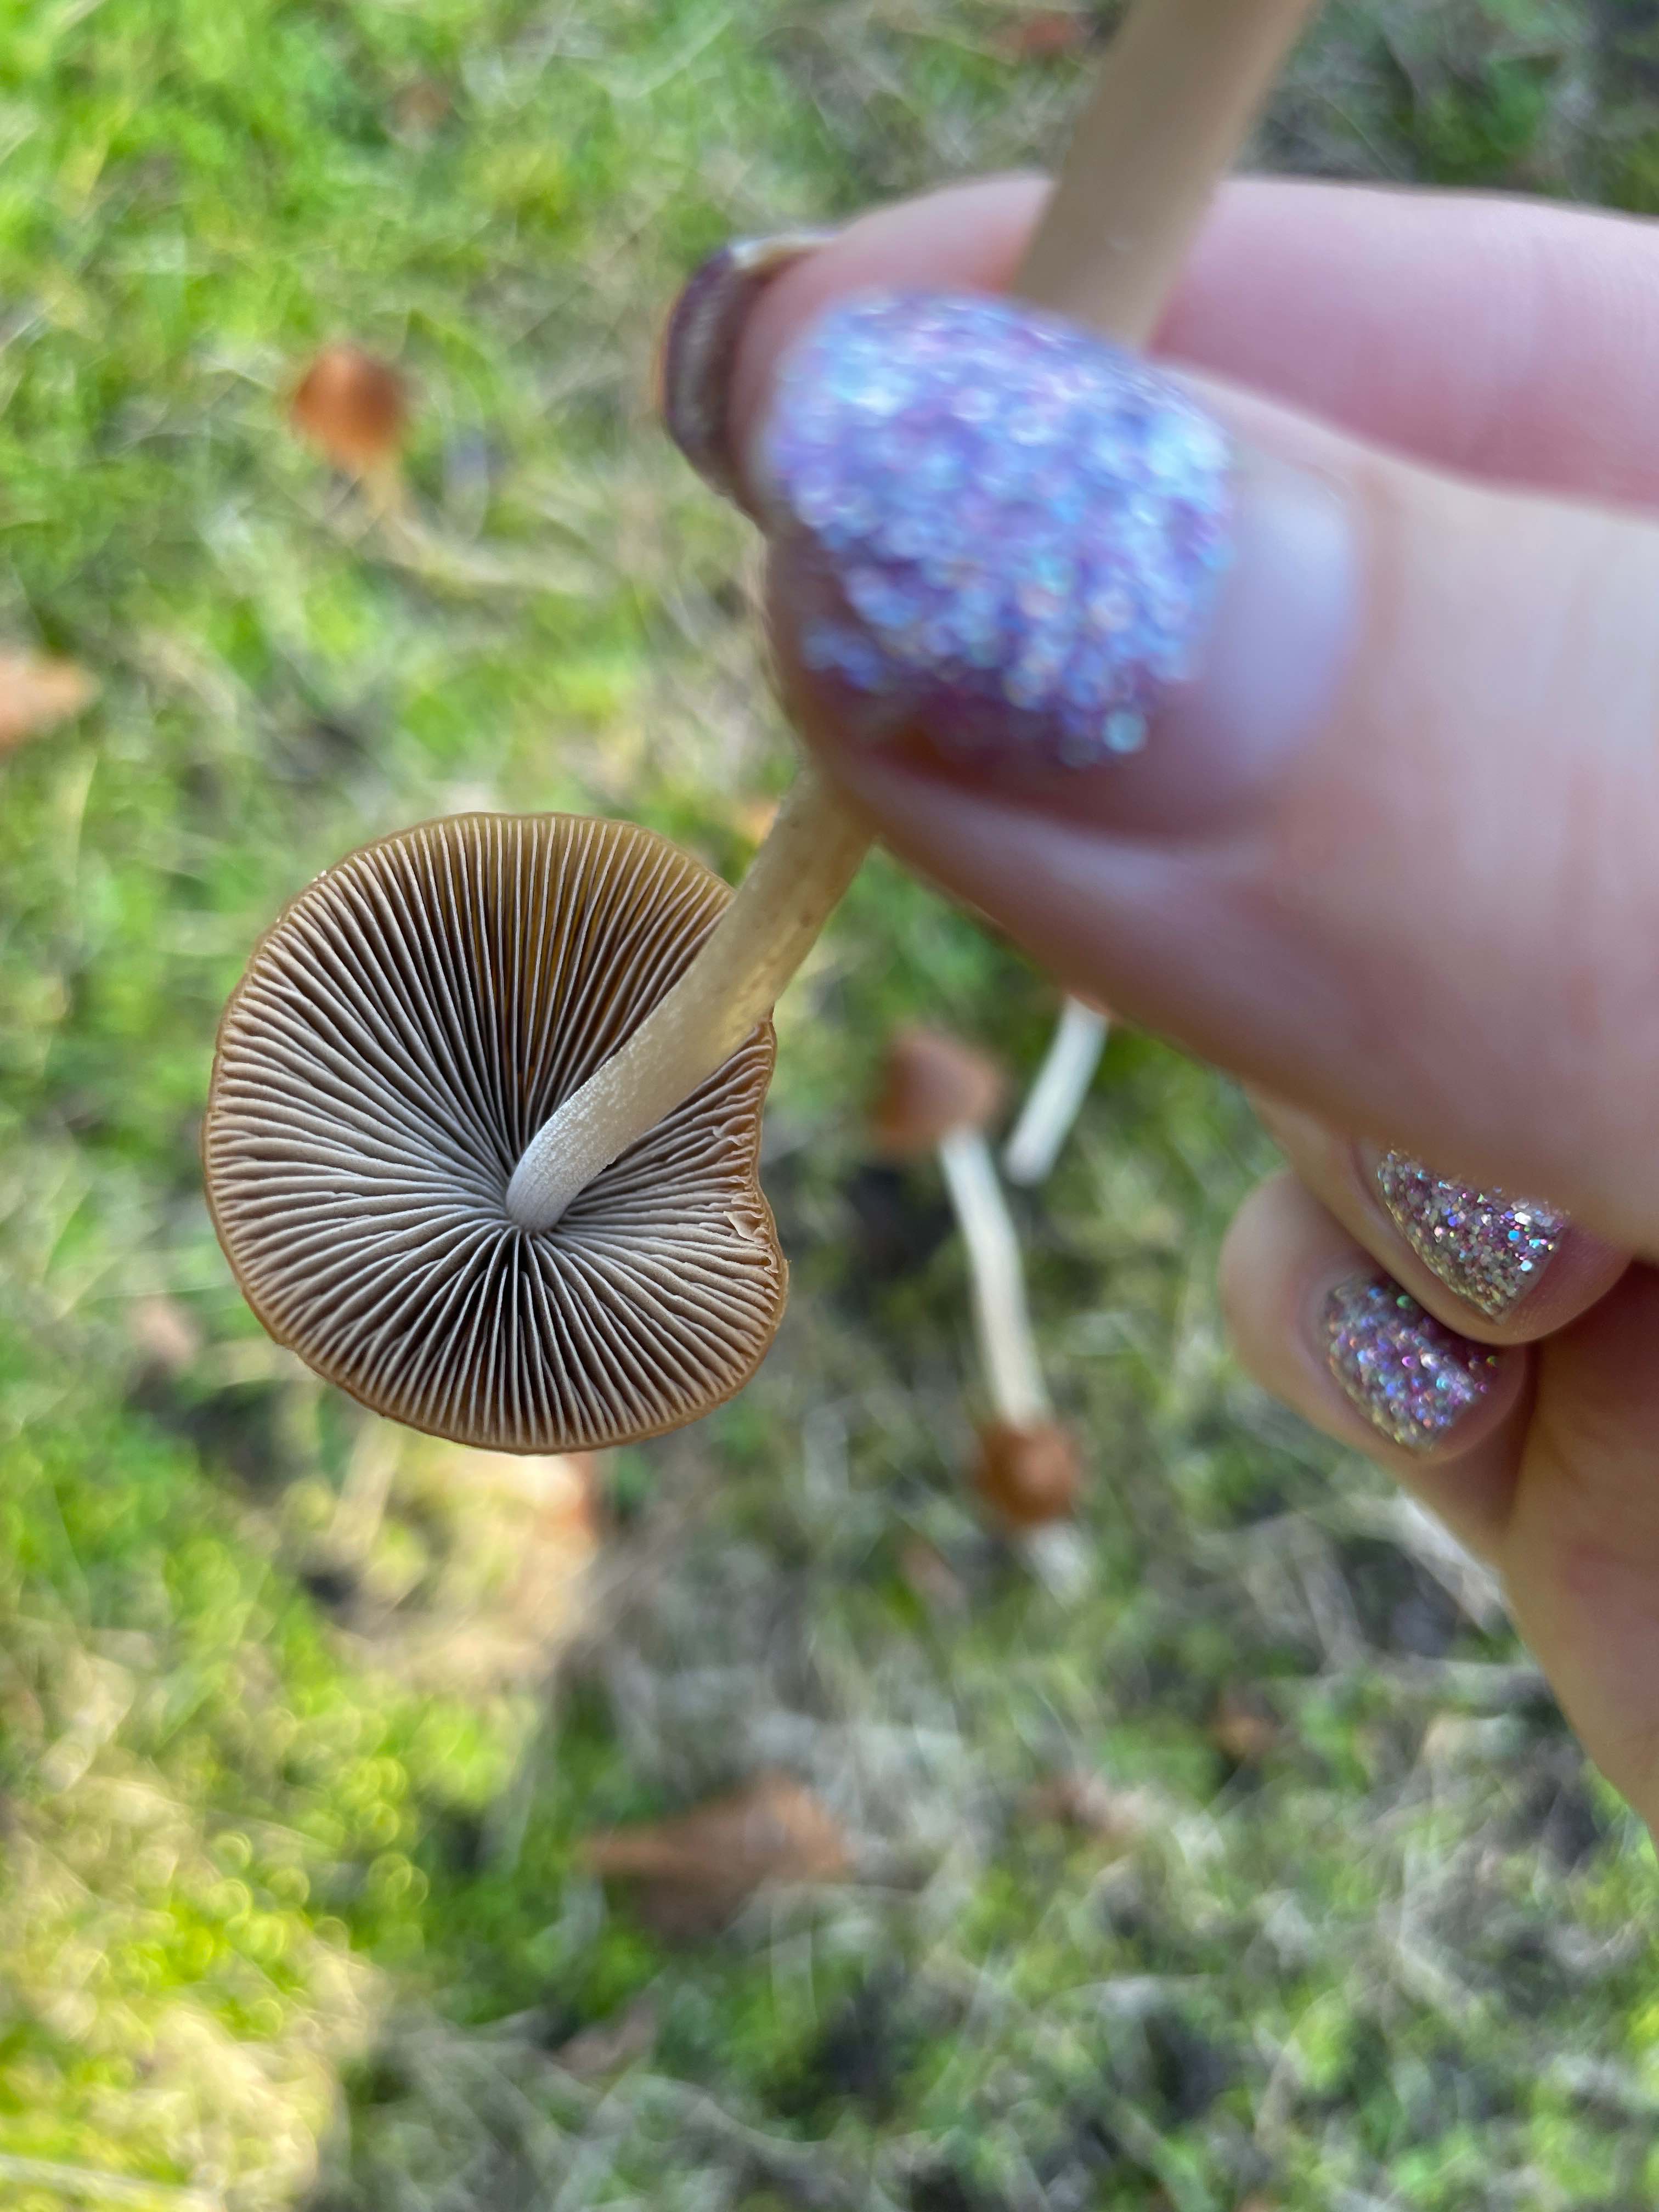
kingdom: Fungi
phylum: Basidiomycota
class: Agaricomycetes
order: Agaricales
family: Psathyrellaceae
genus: Parasola
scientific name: Parasola conopilea
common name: kegle-hjulhat
